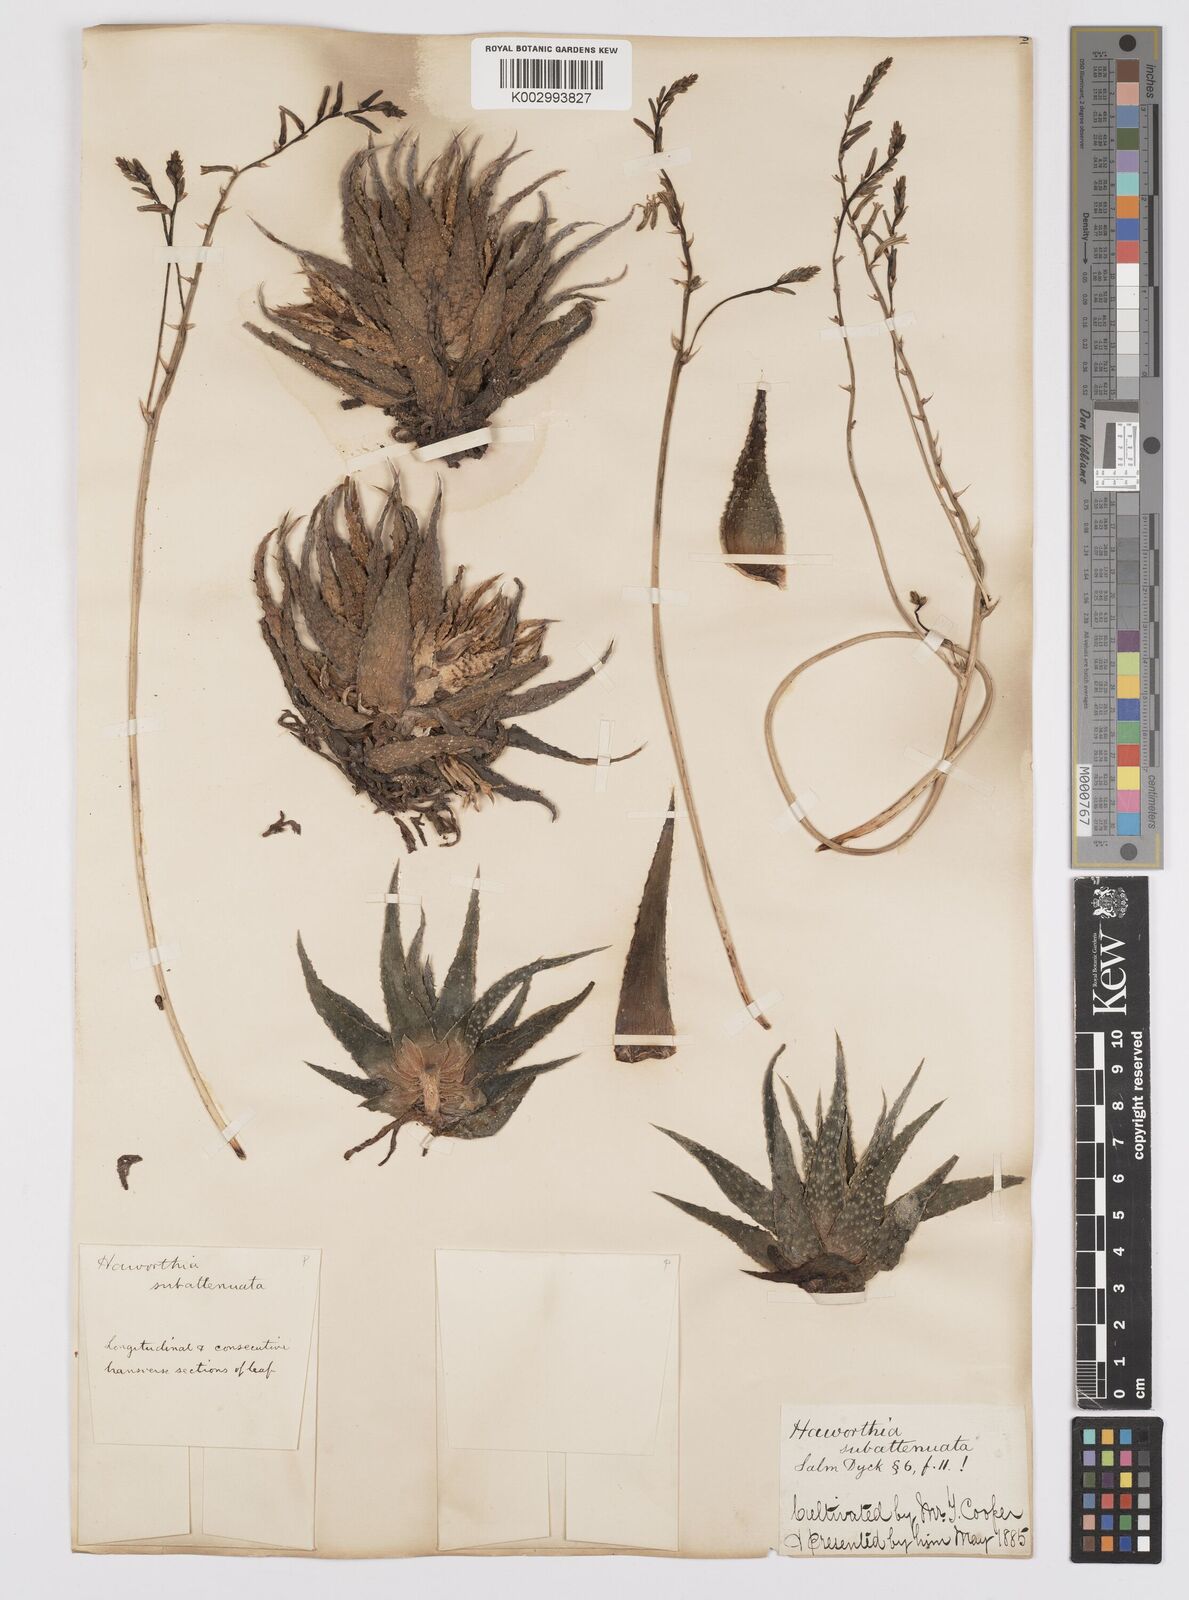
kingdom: Plantae
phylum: Tracheophyta
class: Liliopsida
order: Asparagales
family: Asphodelaceae
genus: Haworthiopsis
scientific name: Haworthiopsis attenuata
